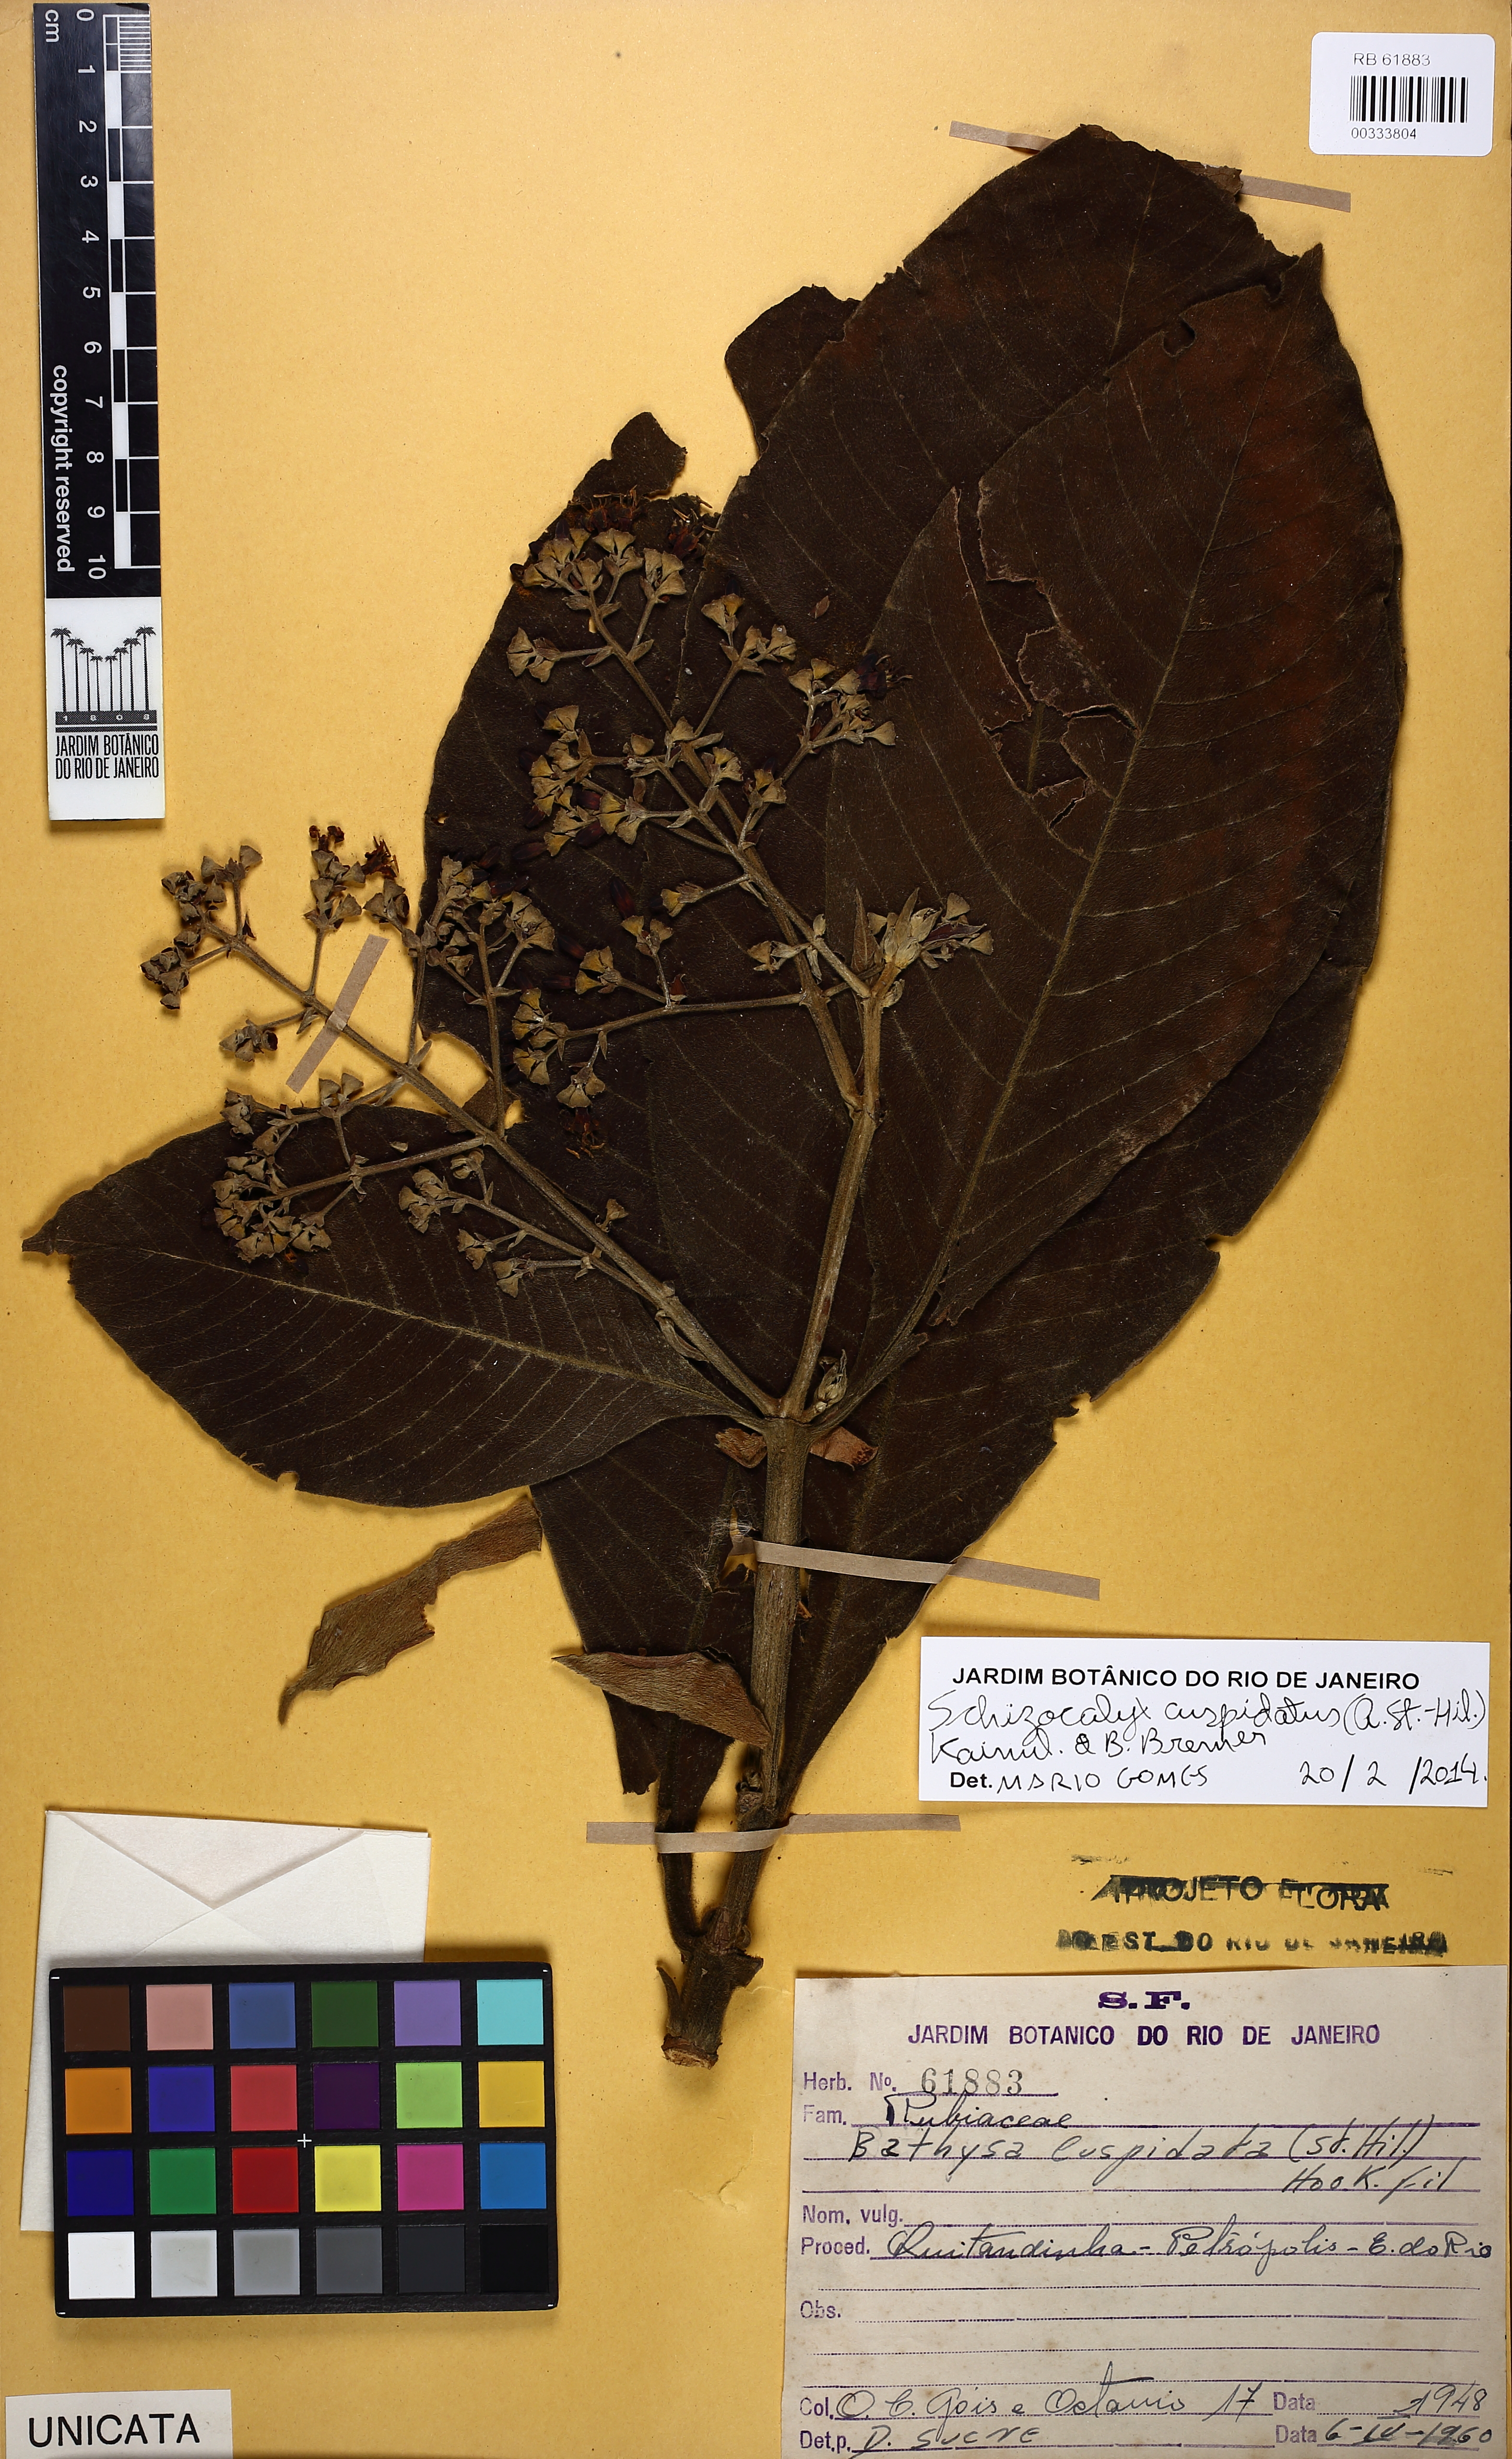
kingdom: Plantae
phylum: Tracheophyta
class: Magnoliopsida
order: Gentianales
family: Rubiaceae
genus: Schizocalyx
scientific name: Schizocalyx cuspidatus
